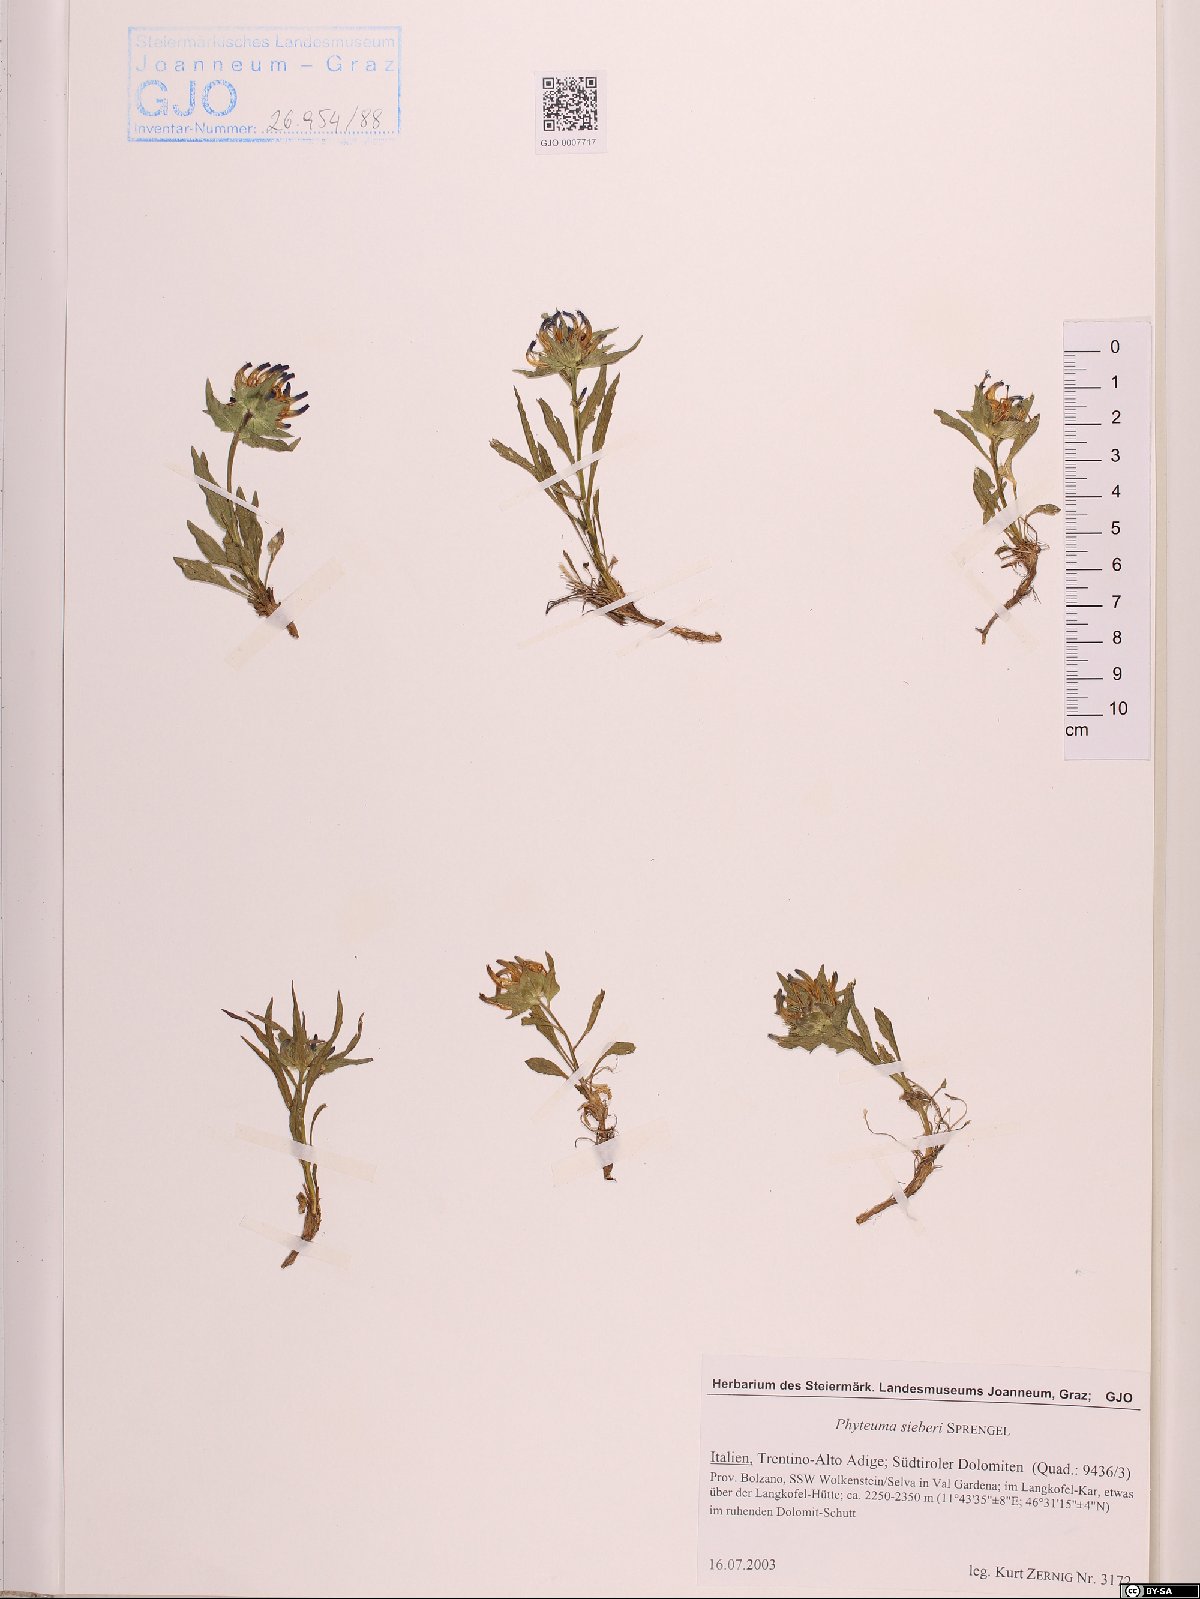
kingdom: Plantae
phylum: Tracheophyta
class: Magnoliopsida
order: Asterales
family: Campanulaceae
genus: Phyteuma
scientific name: Phyteuma sieberi
